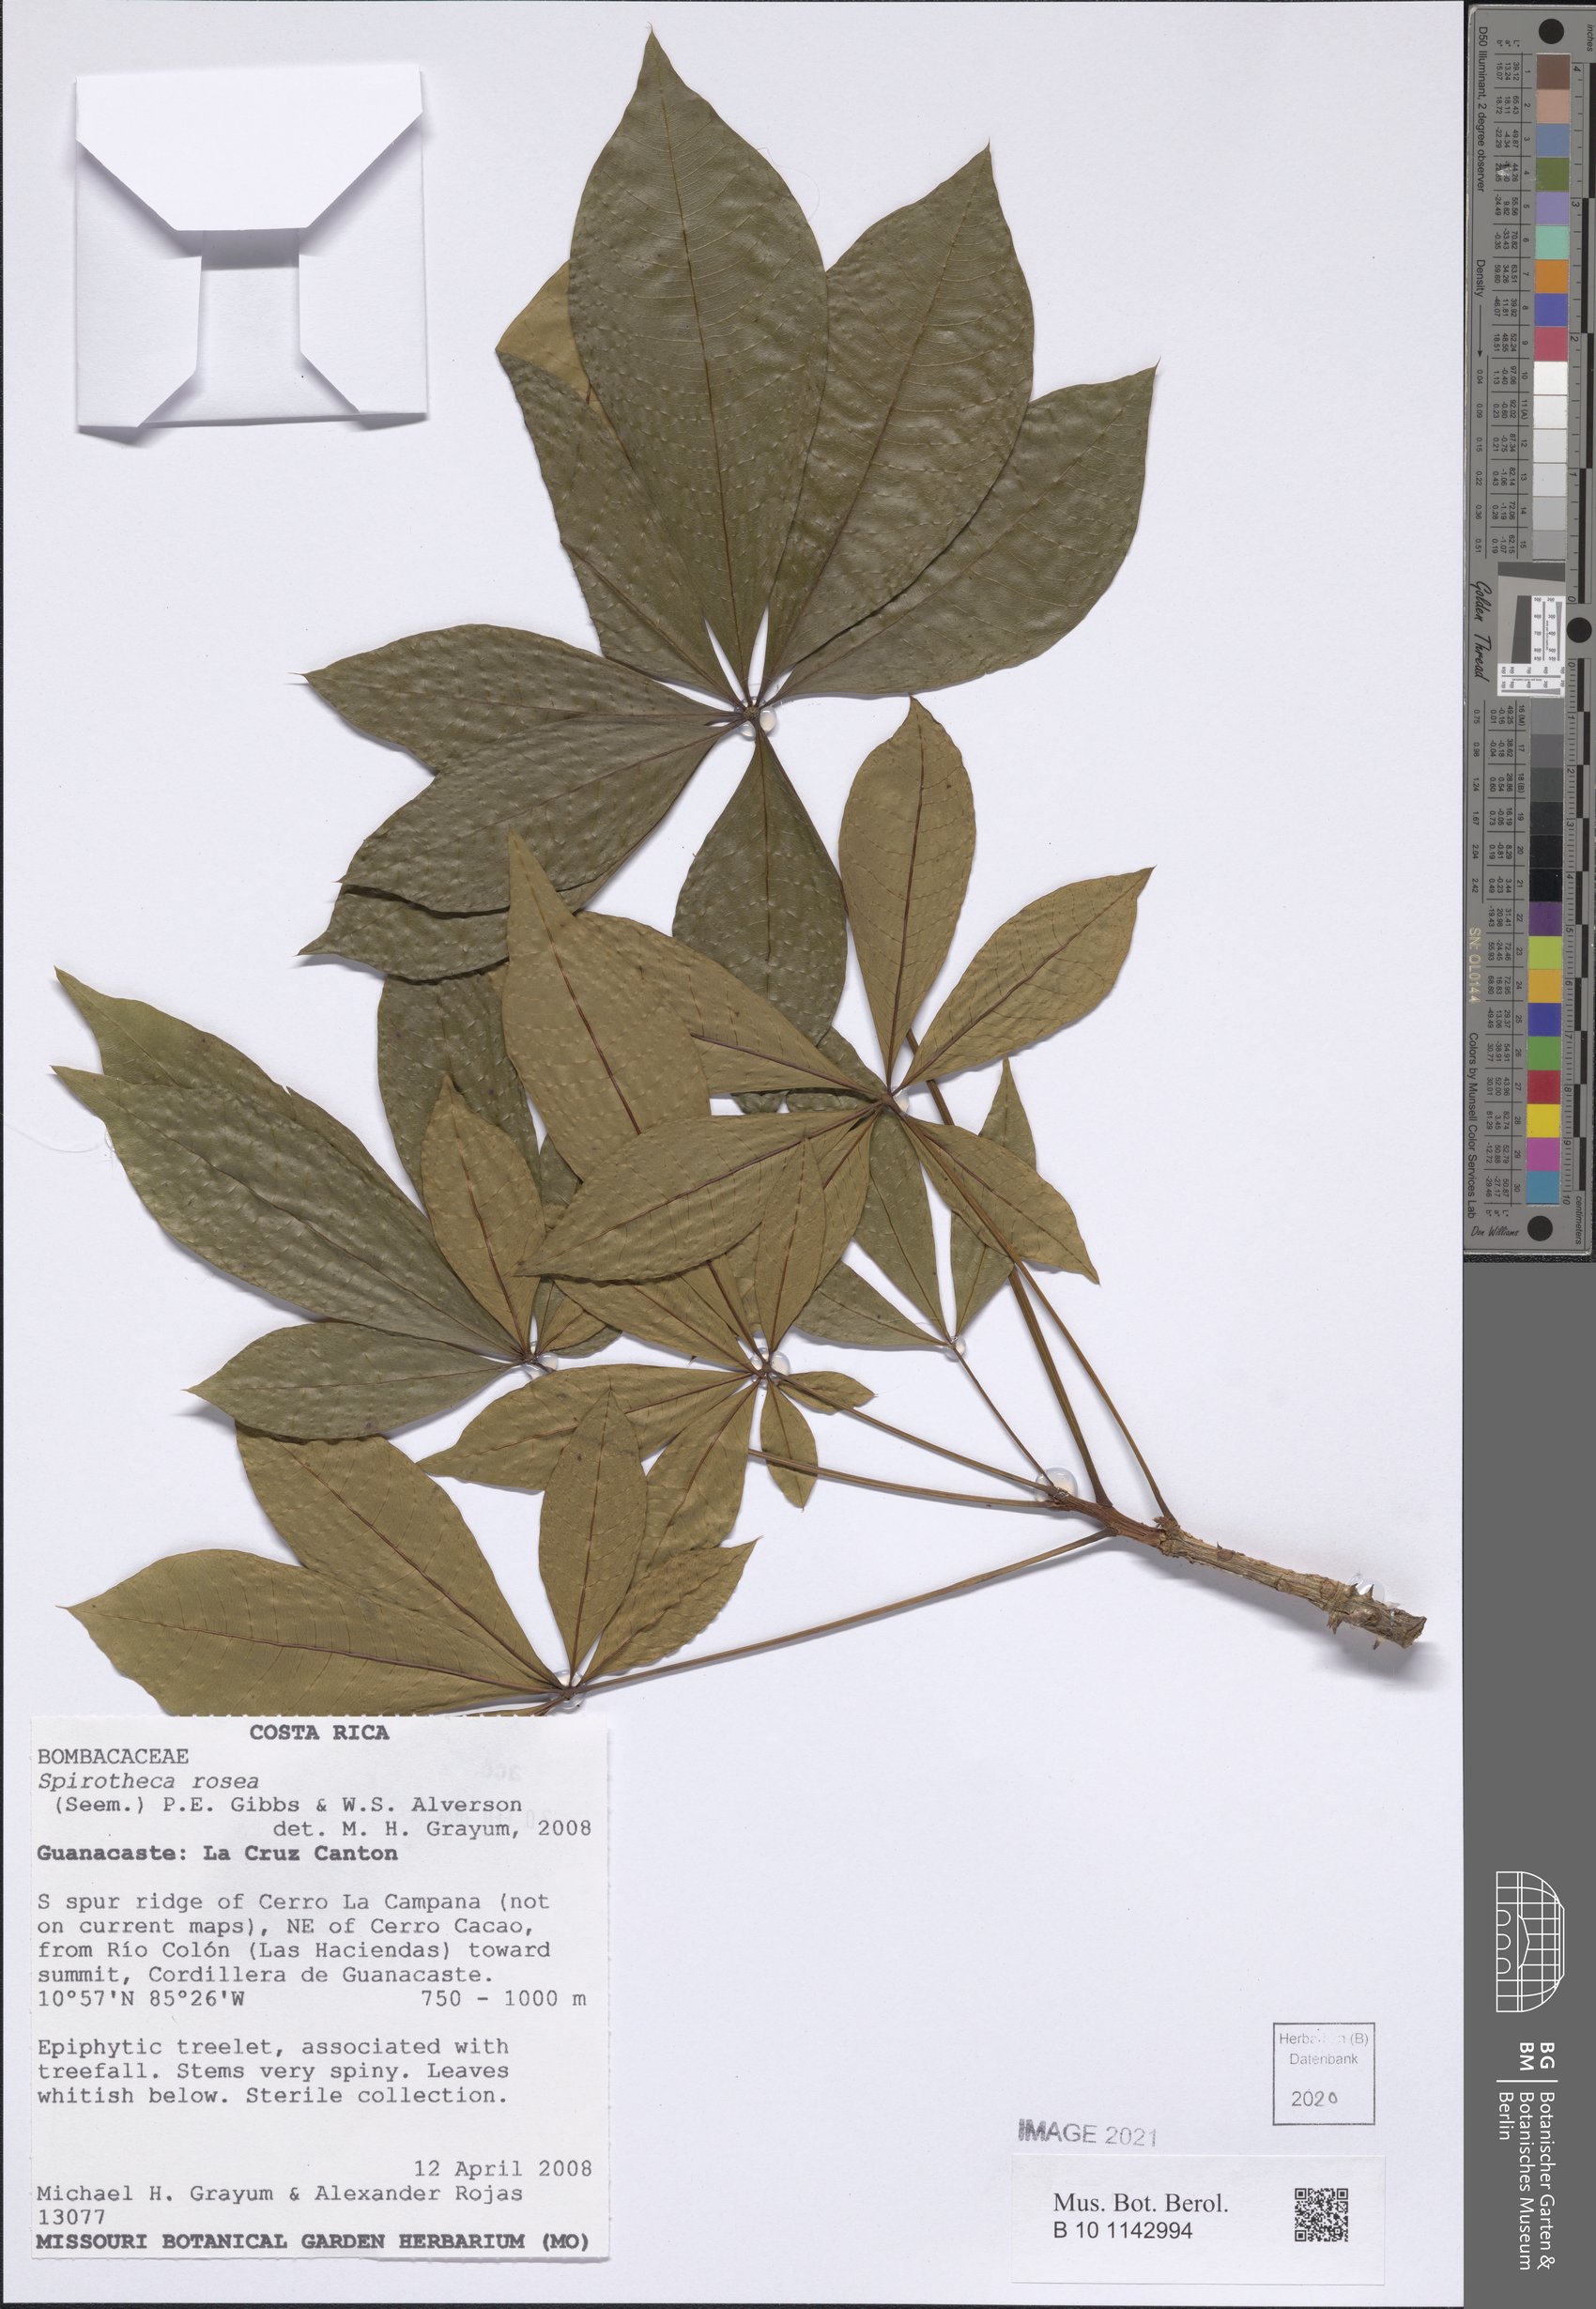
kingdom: Plantae
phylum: Tracheophyta
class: Magnoliopsida
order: Malvales
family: Malvaceae
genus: Spirotheca
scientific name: Spirotheca rosea
